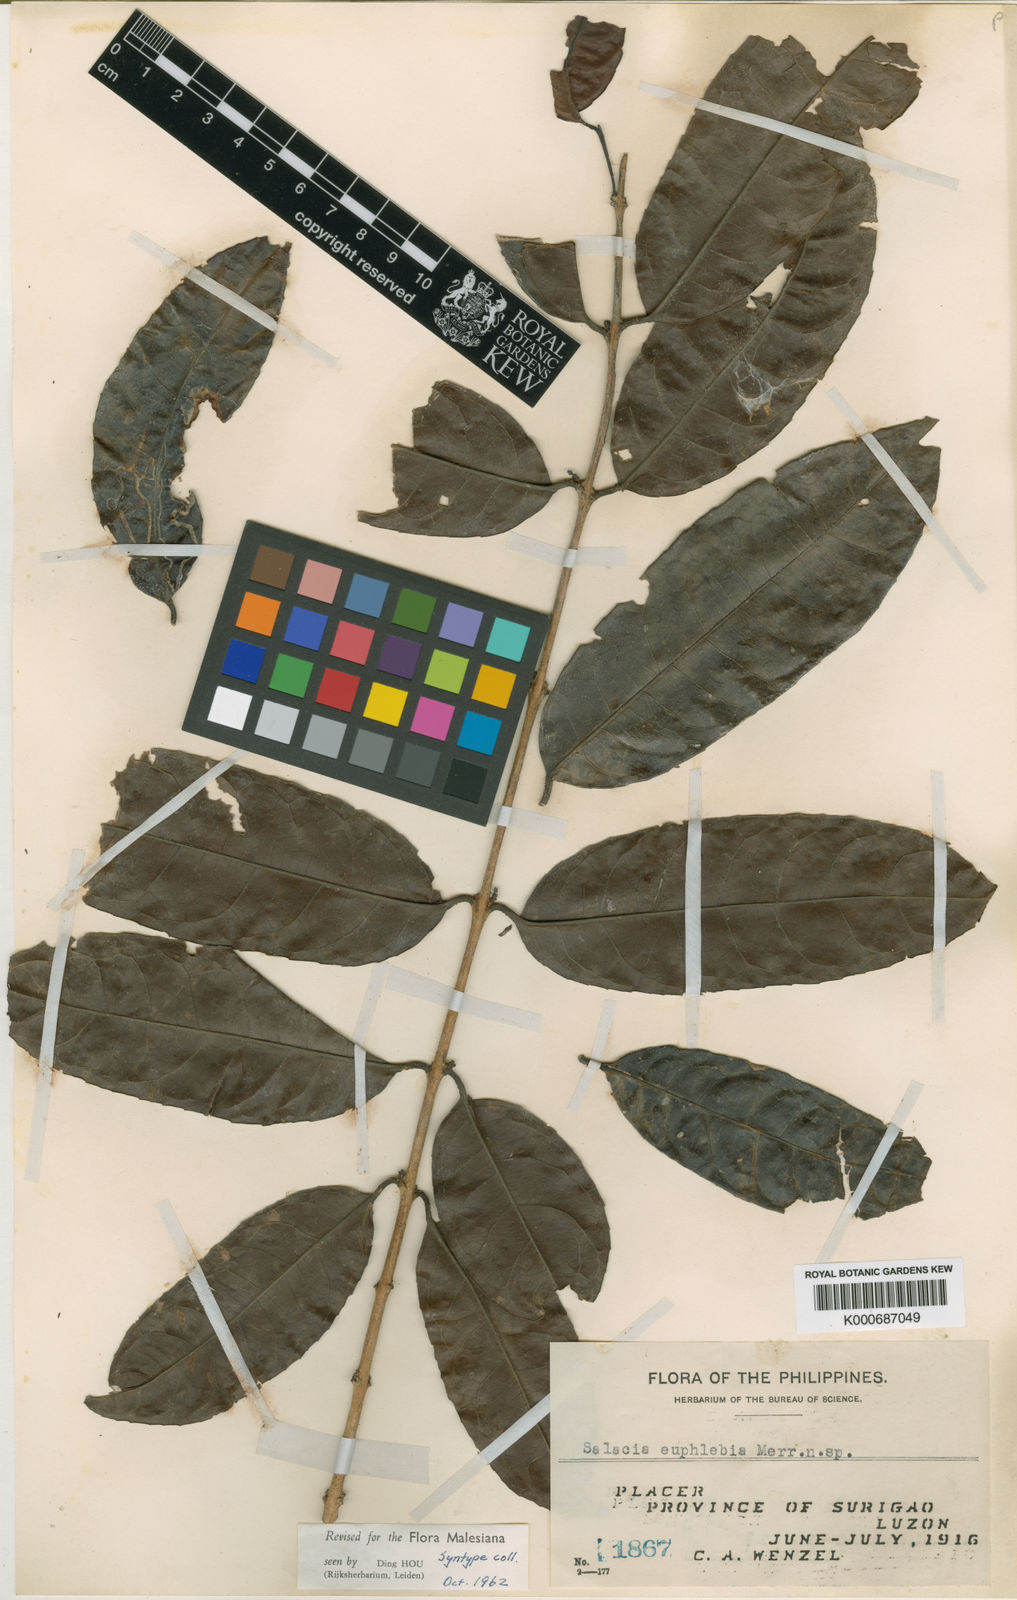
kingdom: Plantae
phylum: Tracheophyta
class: Magnoliopsida
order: Celastrales
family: Celastraceae
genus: Salacia
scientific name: Salacia macrophylla
